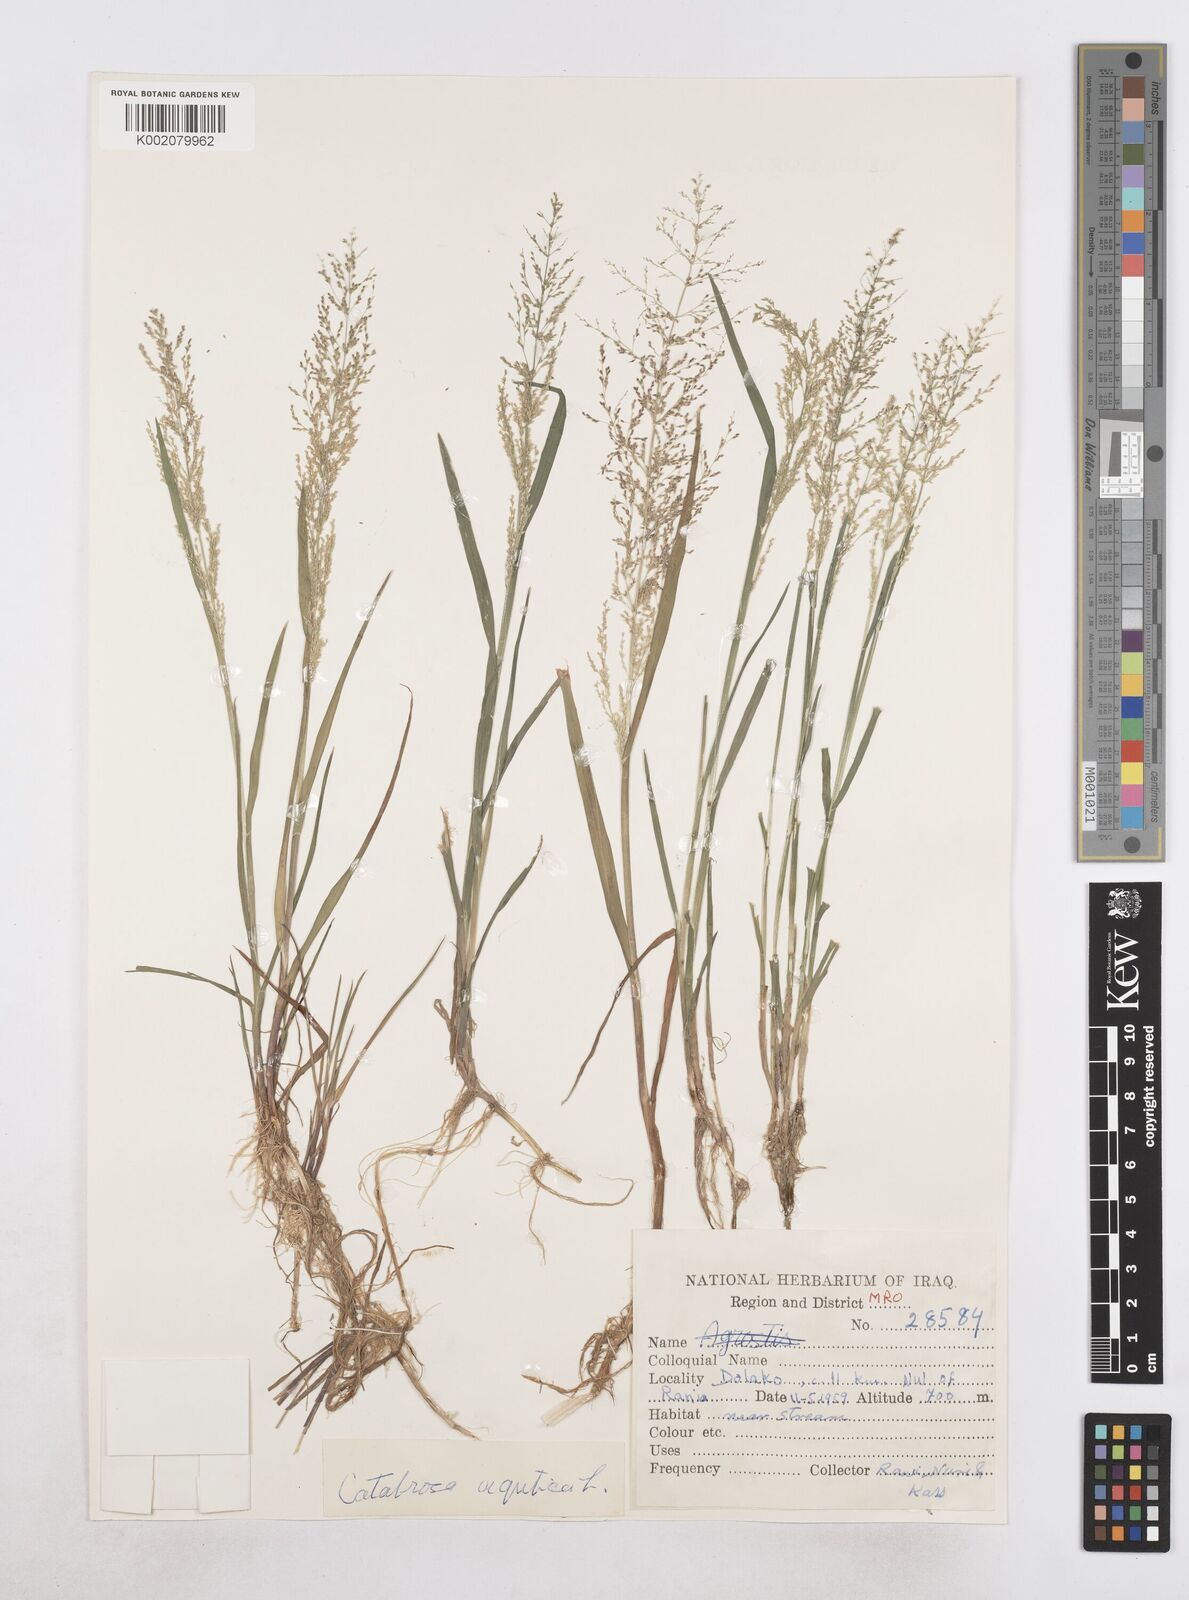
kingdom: Plantae
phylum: Tracheophyta
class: Liliopsida
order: Poales
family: Poaceae
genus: Catabrosa
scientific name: Catabrosa aquatica
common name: Whorl-grass
